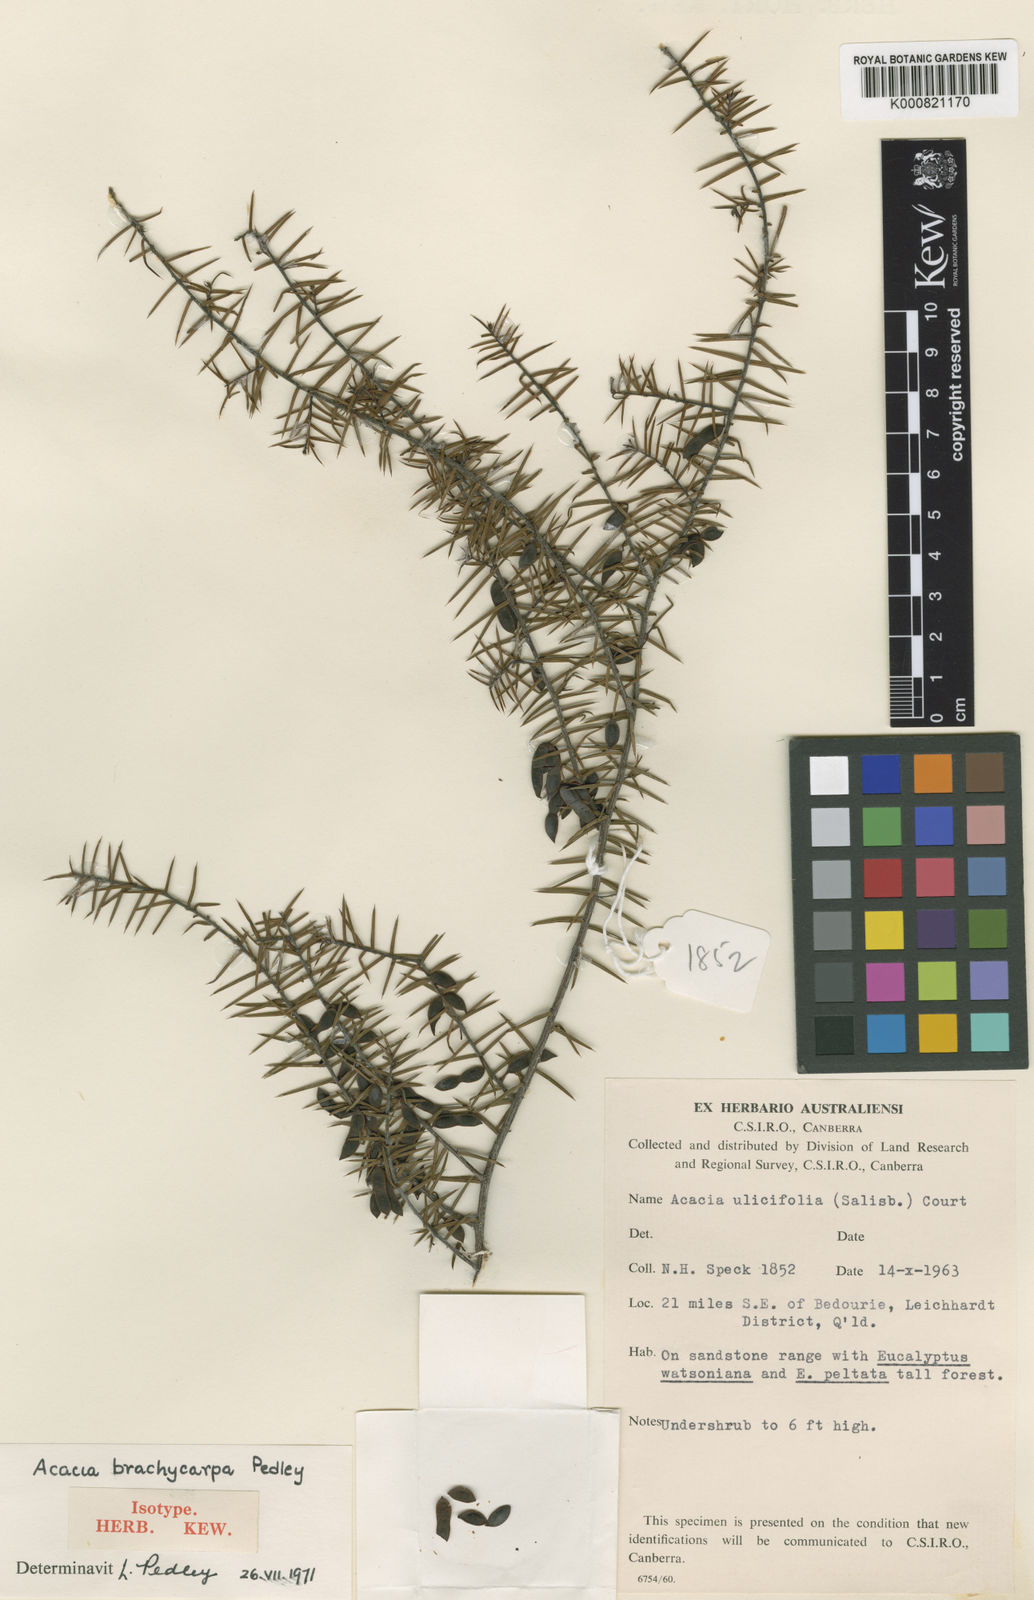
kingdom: Plantae
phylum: Tracheophyta
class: Magnoliopsida
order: Fabales
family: Fabaceae
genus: Acacia
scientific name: Acacia neobrachycarpa
